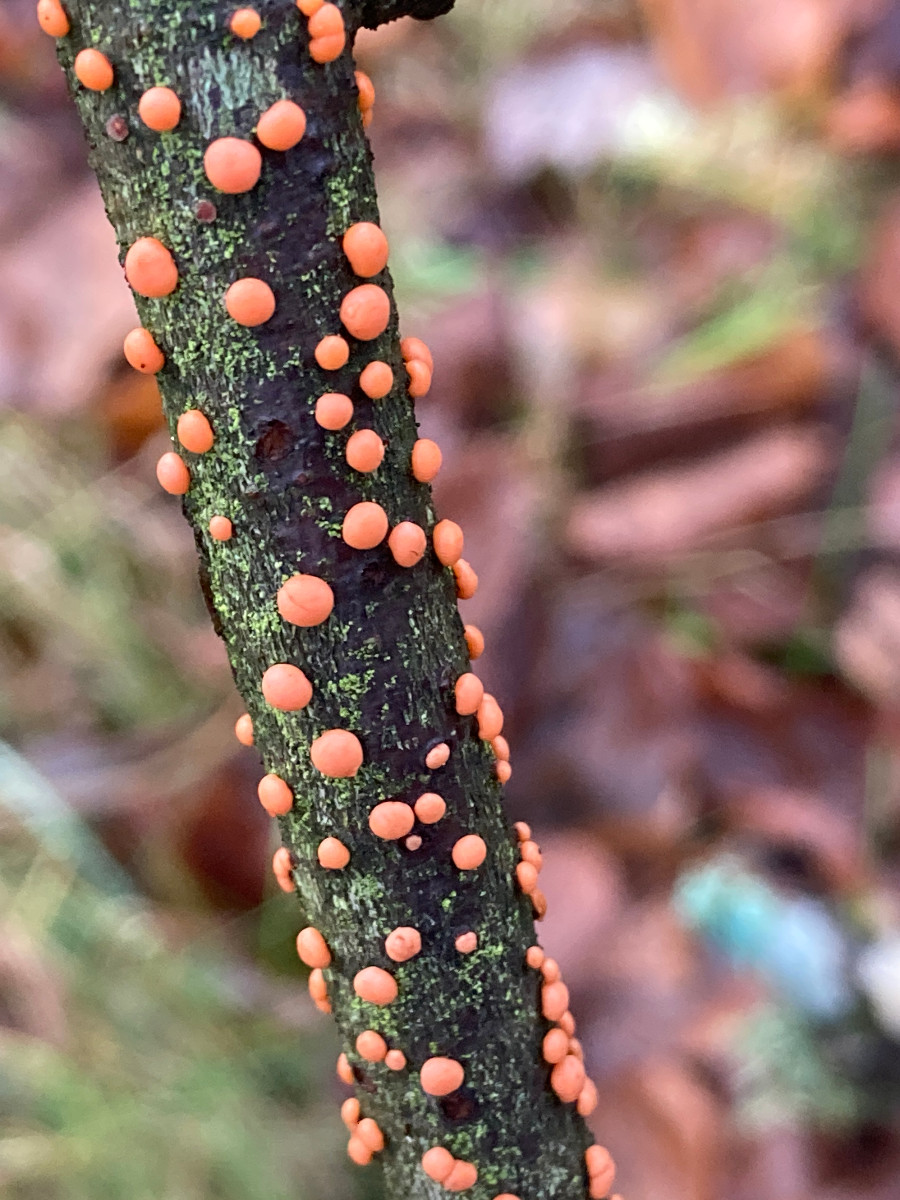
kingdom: Fungi
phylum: Ascomycota
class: Sordariomycetes
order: Hypocreales
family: Nectriaceae
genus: Nectria
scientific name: Nectria cinnabarina
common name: almindelig cinnobersvamp
